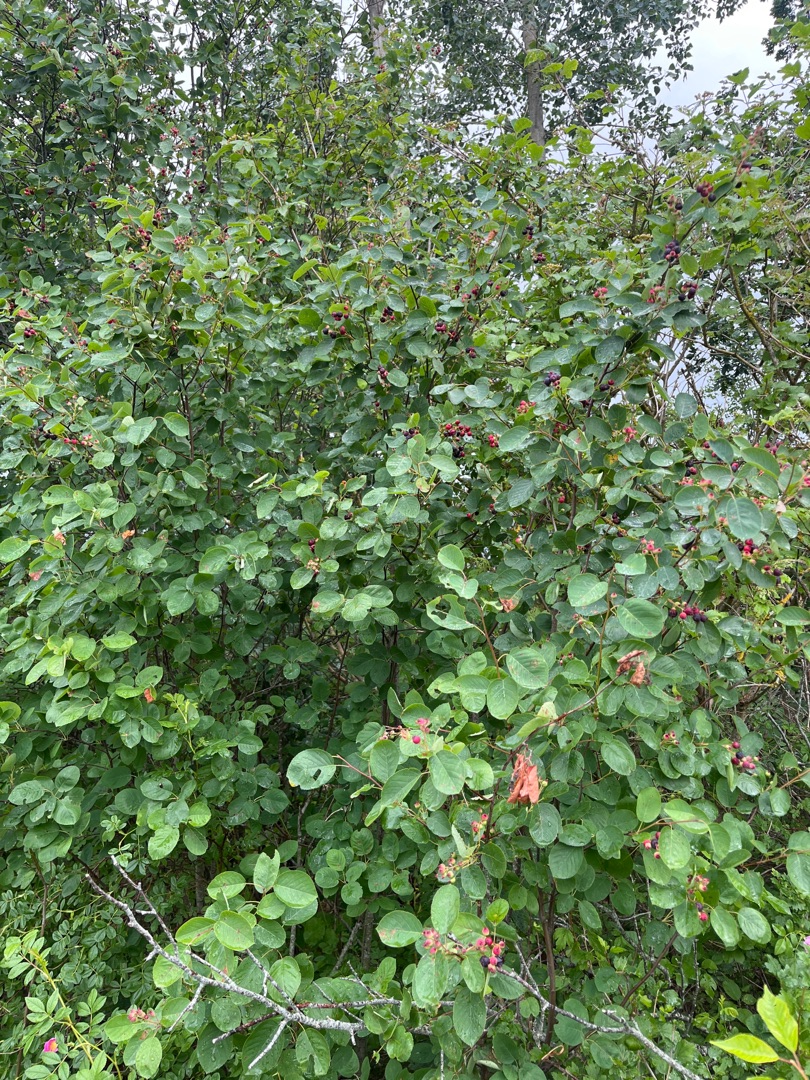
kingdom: Plantae
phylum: Tracheophyta
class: Magnoliopsida
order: Rosales
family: Rosaceae
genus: Amelanchier
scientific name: Amelanchier humilis
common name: Aks-bærmispel
